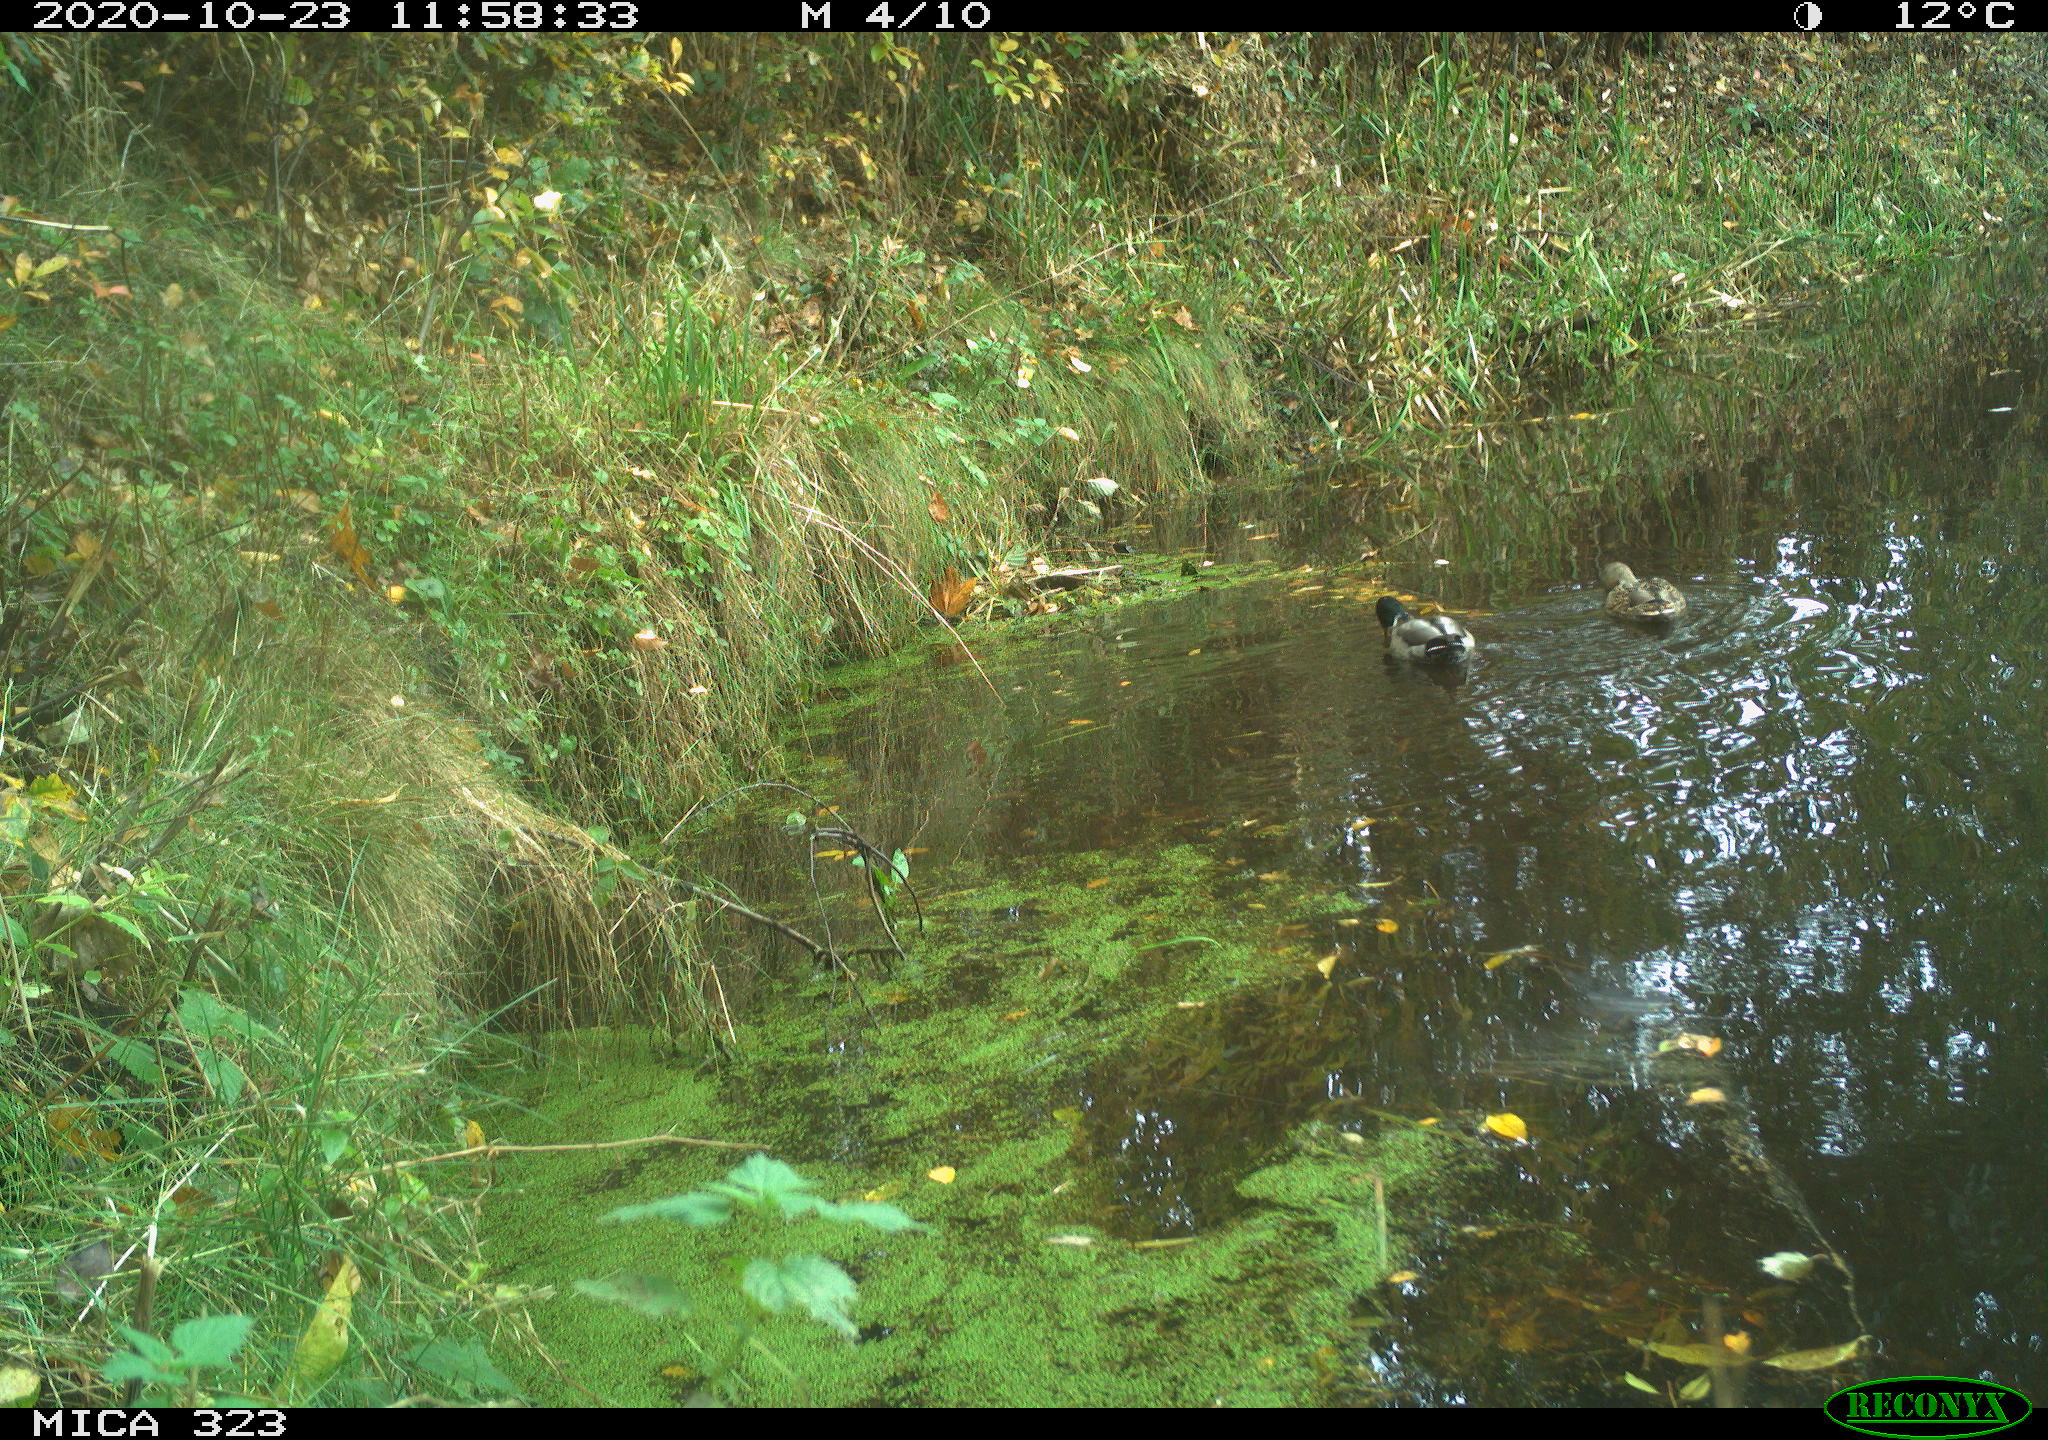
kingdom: Animalia
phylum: Chordata
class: Aves
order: Anseriformes
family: Anatidae
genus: Anas
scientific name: Anas platyrhynchos
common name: Mallard
